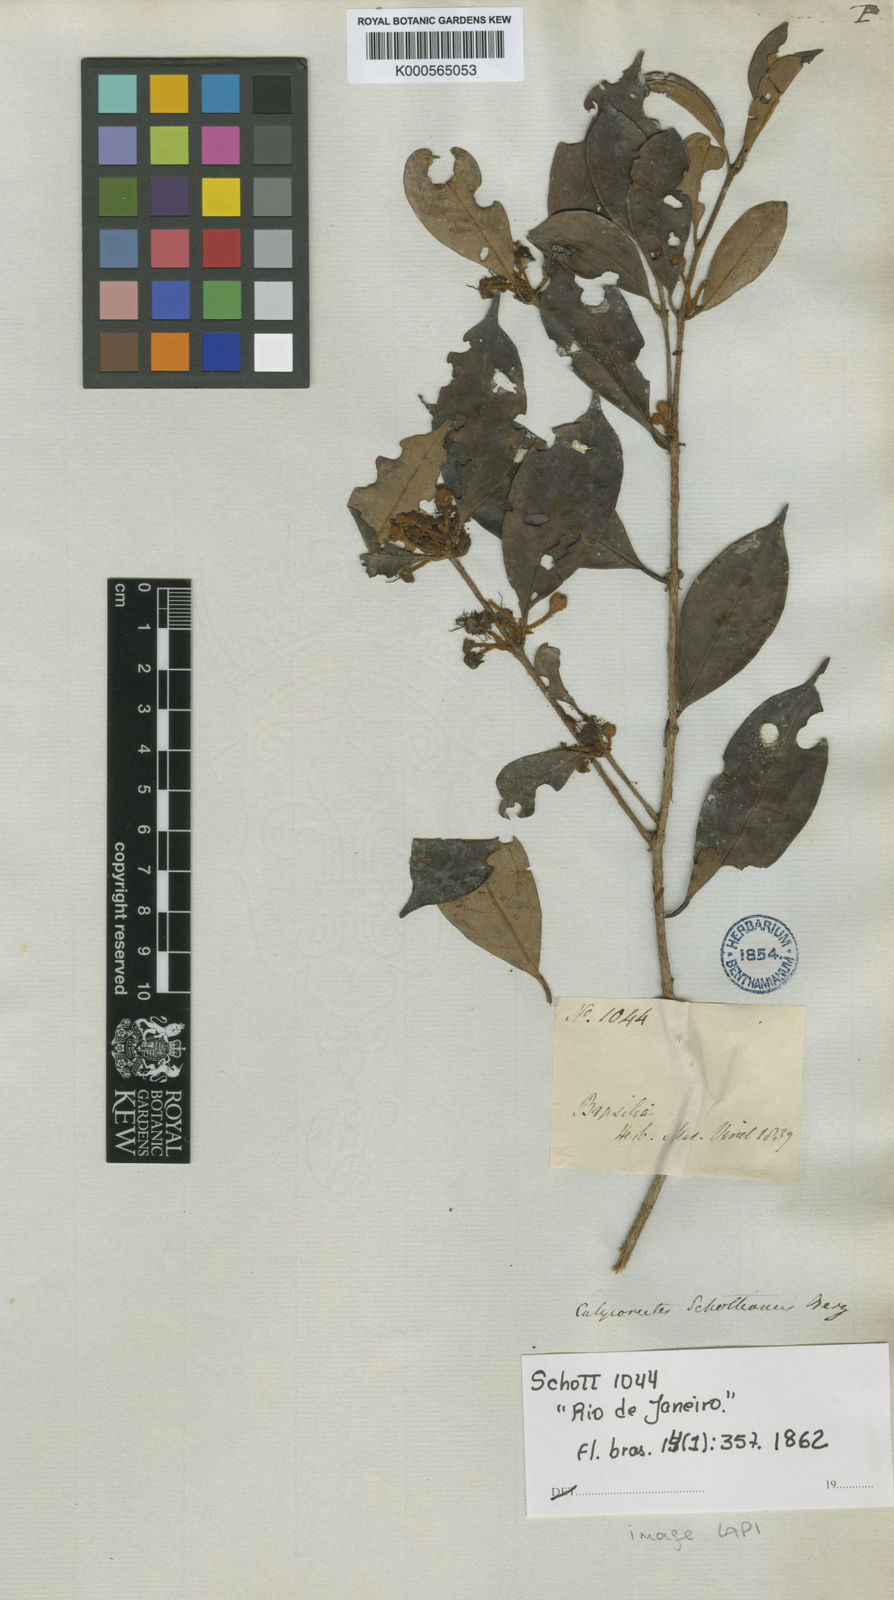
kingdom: Plantae
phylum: Tracheophyta
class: Magnoliopsida
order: Myrtales
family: Myrtaceae
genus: Eugenia
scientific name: Eugenia
